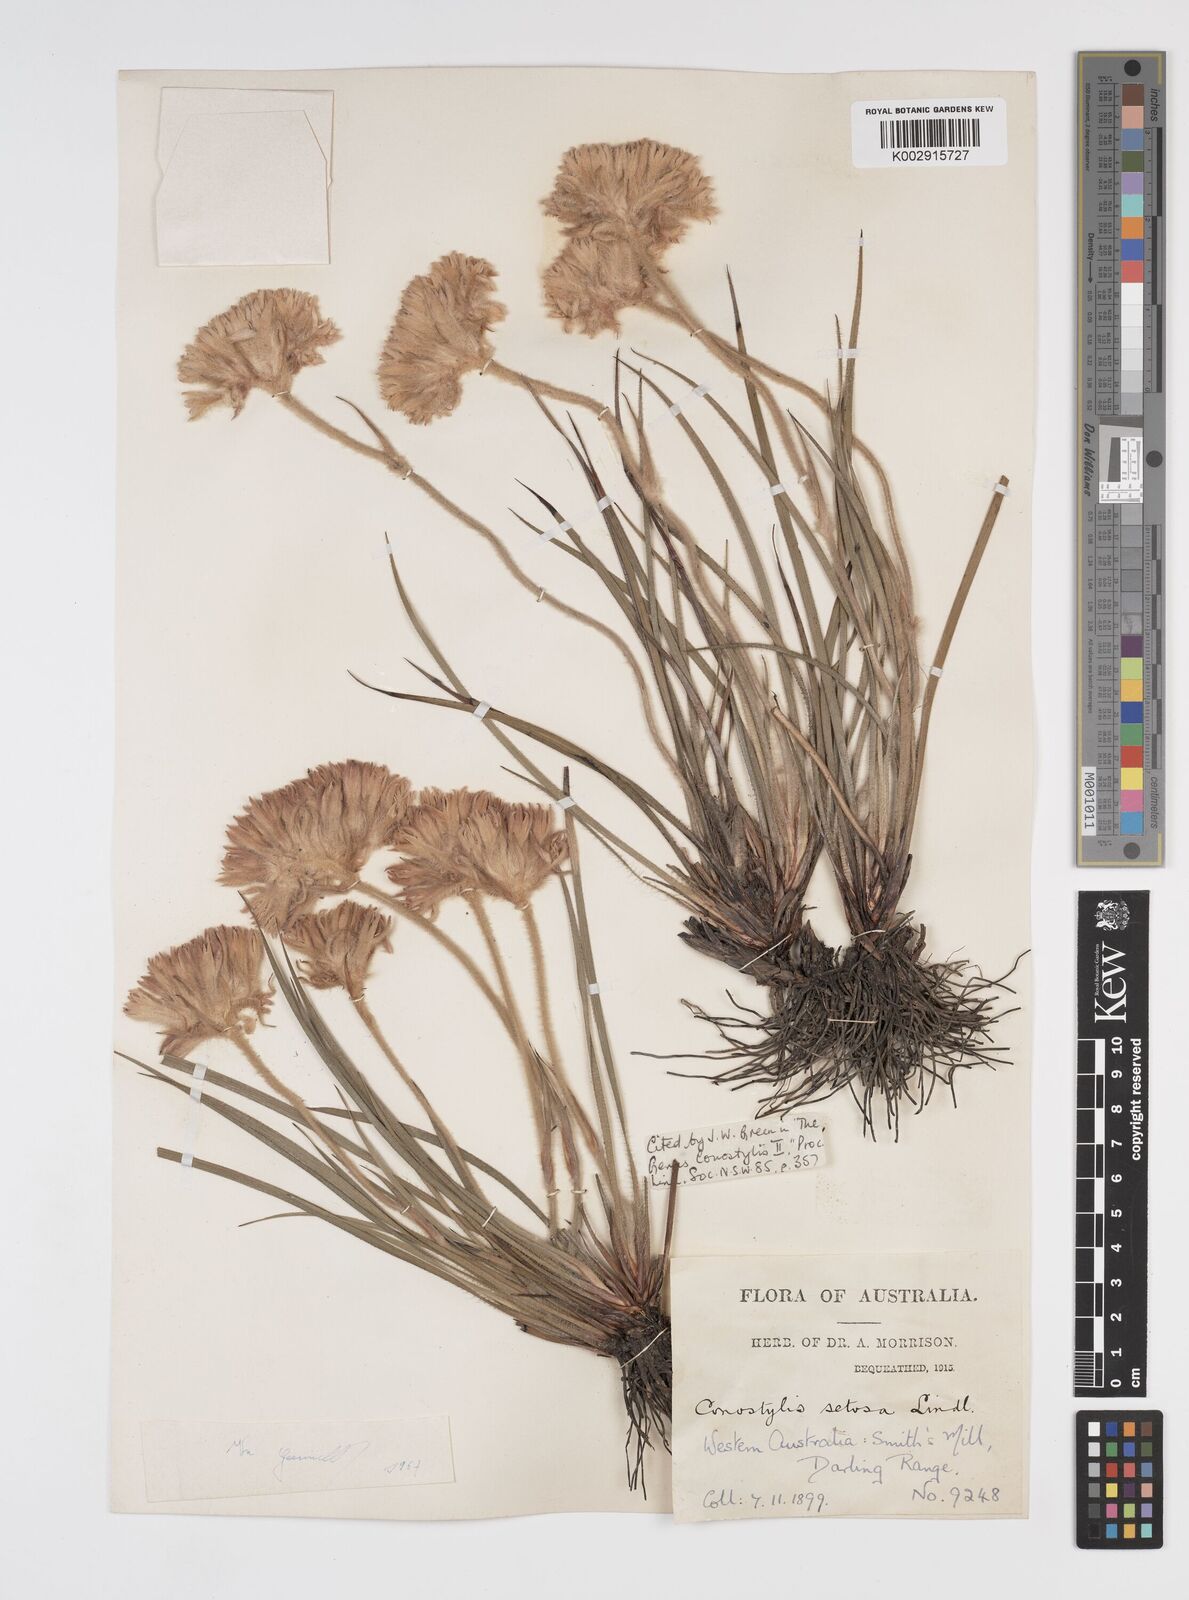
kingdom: Plantae
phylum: Tracheophyta
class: Liliopsida
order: Commelinales
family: Haemodoraceae
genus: Conostylis
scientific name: Conostylis setosa
